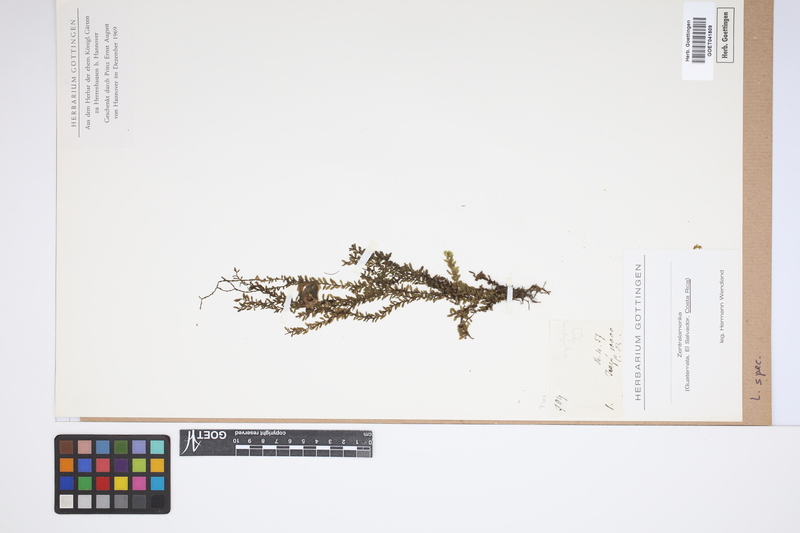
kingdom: Plantae
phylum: Tracheophyta
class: Lycopodiopsida
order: Lycopodiales
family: Lycopodiaceae
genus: Lycopodium
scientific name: Lycopodium
